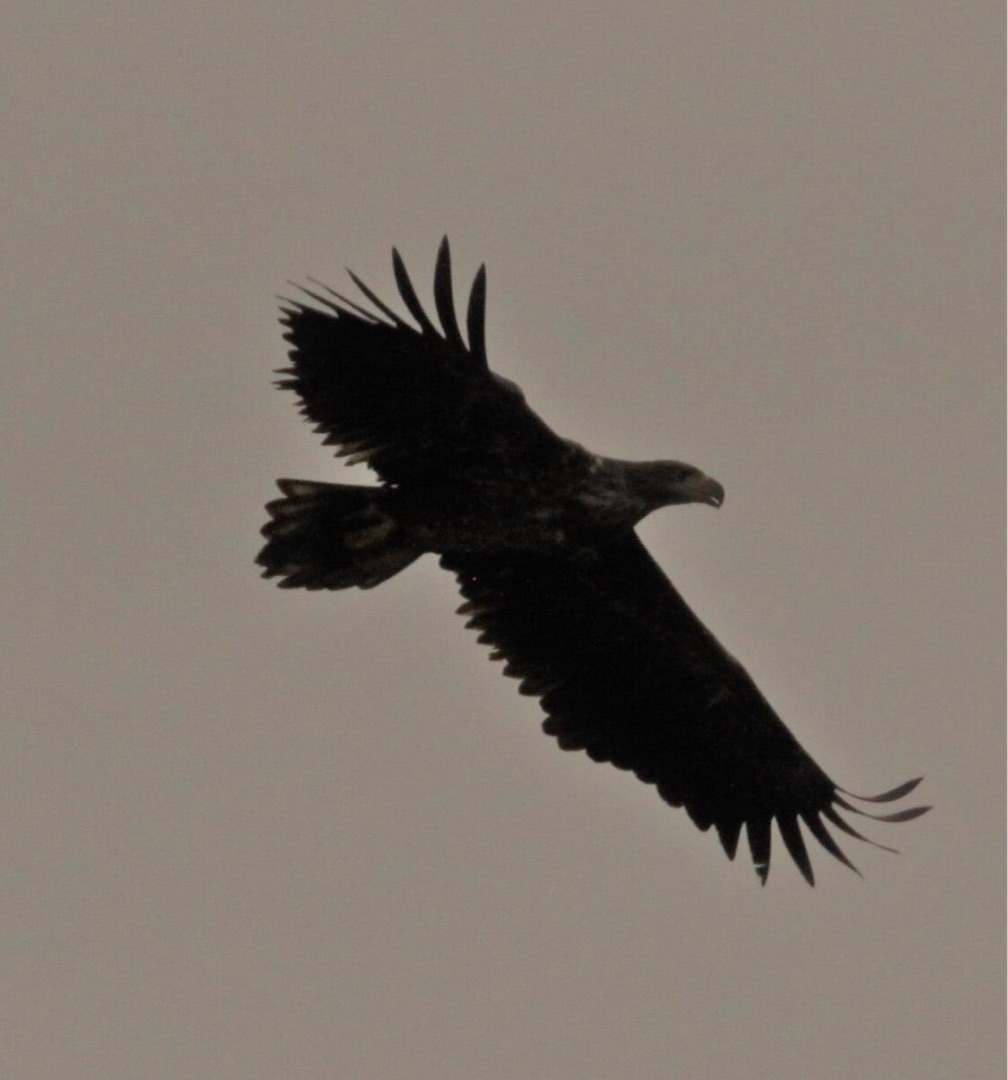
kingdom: Animalia
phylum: Chordata
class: Aves
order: Accipitriformes
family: Accipitridae
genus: Haliaeetus
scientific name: Haliaeetus albicilla
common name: Havørn
